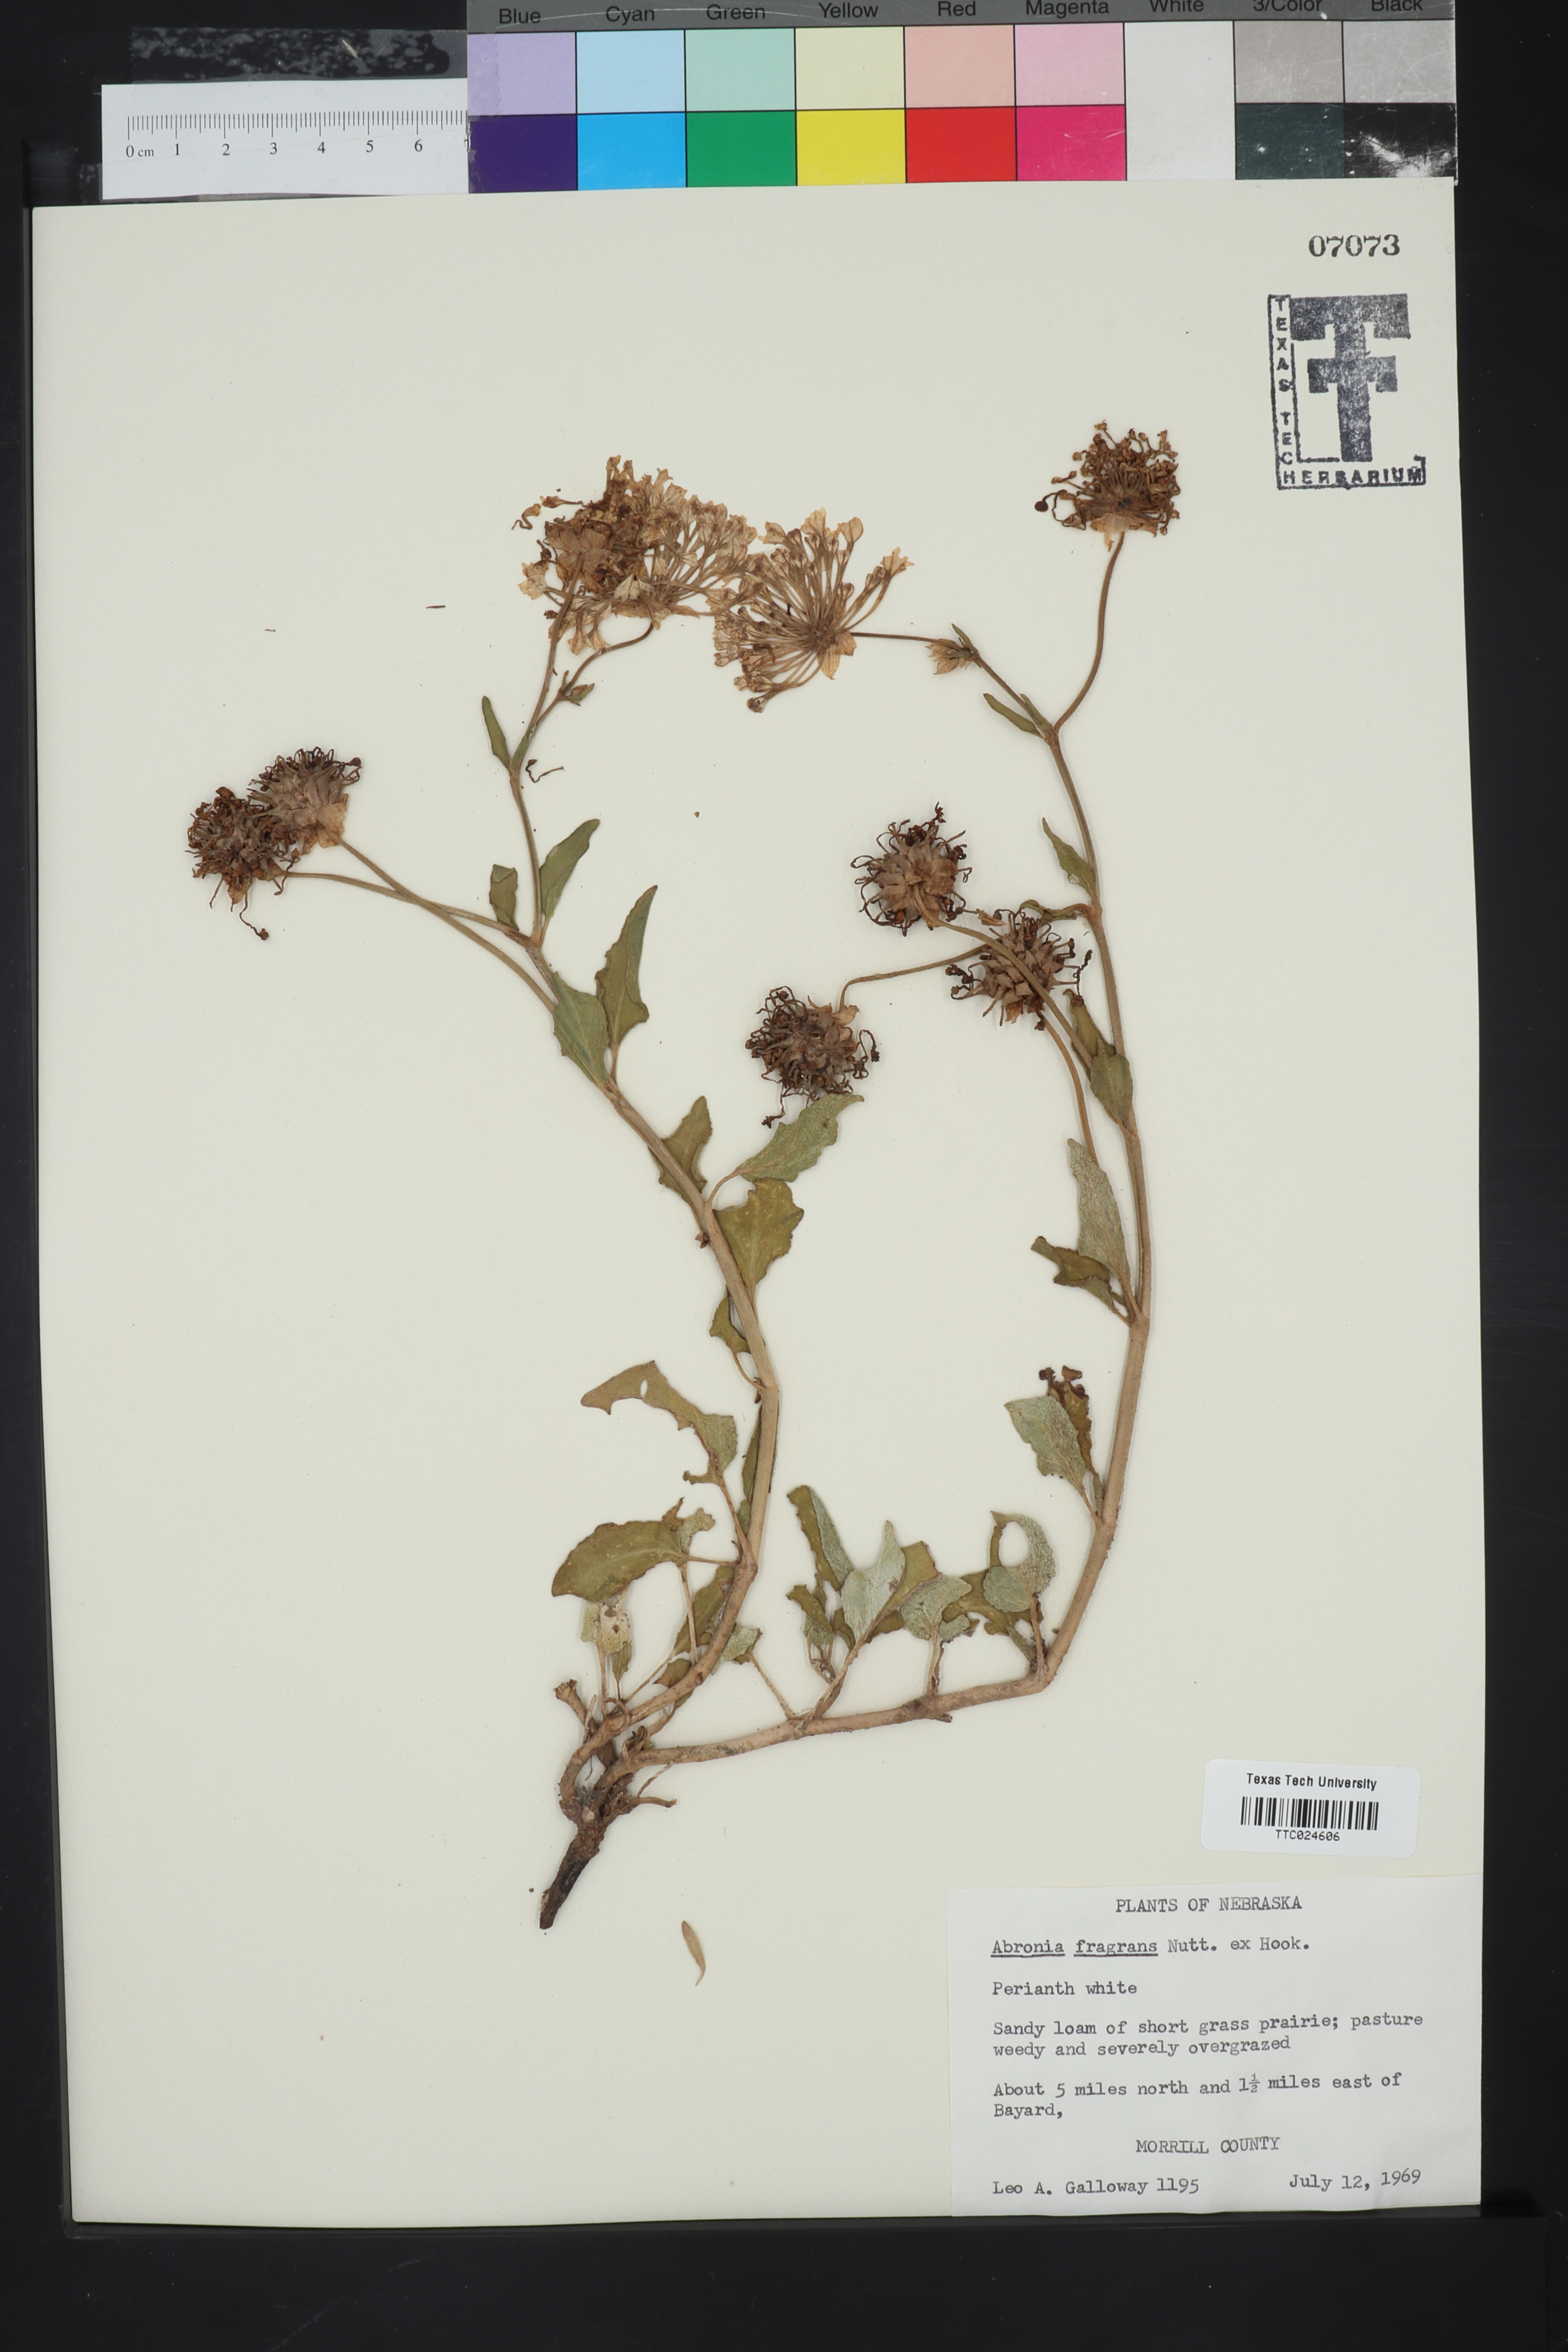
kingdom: Plantae
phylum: Tracheophyta
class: Magnoliopsida
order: Caryophyllales
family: Nyctaginaceae
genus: Abronia
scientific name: Abronia fragrans
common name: Fragrant sand-verbena
